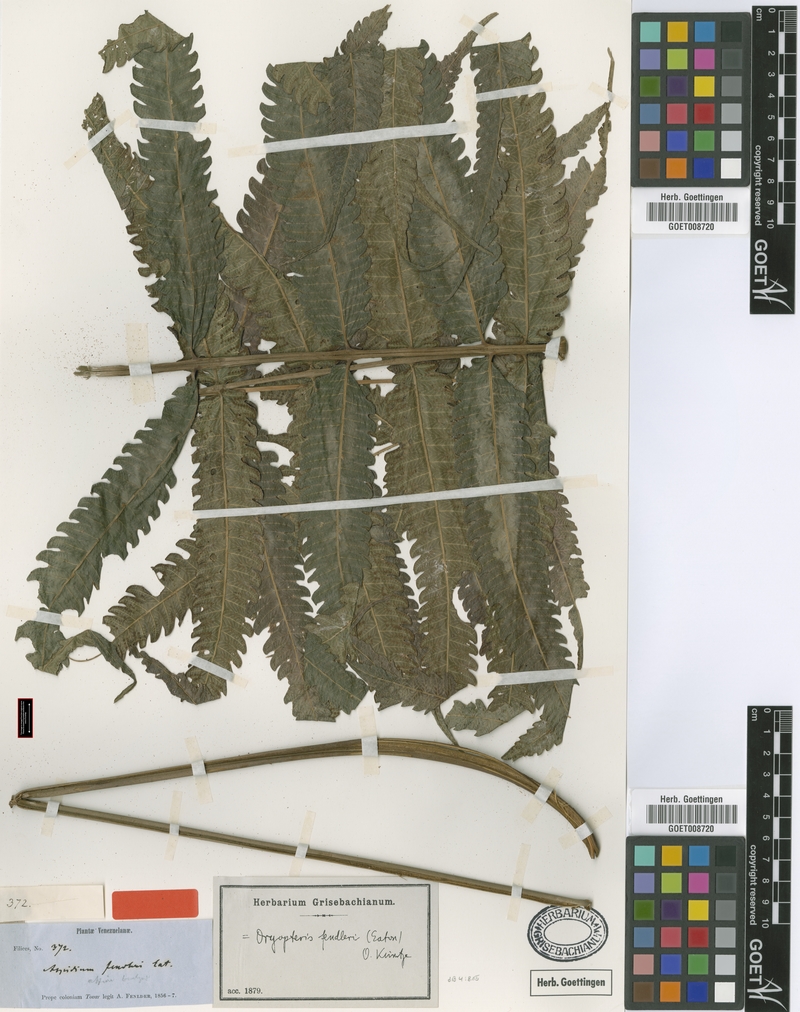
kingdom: Plantae
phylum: Tracheophyta
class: Polypodiopsida
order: Polypodiales
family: Thelypteridaceae
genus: Steiropteris
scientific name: Steiropteris fendleri
